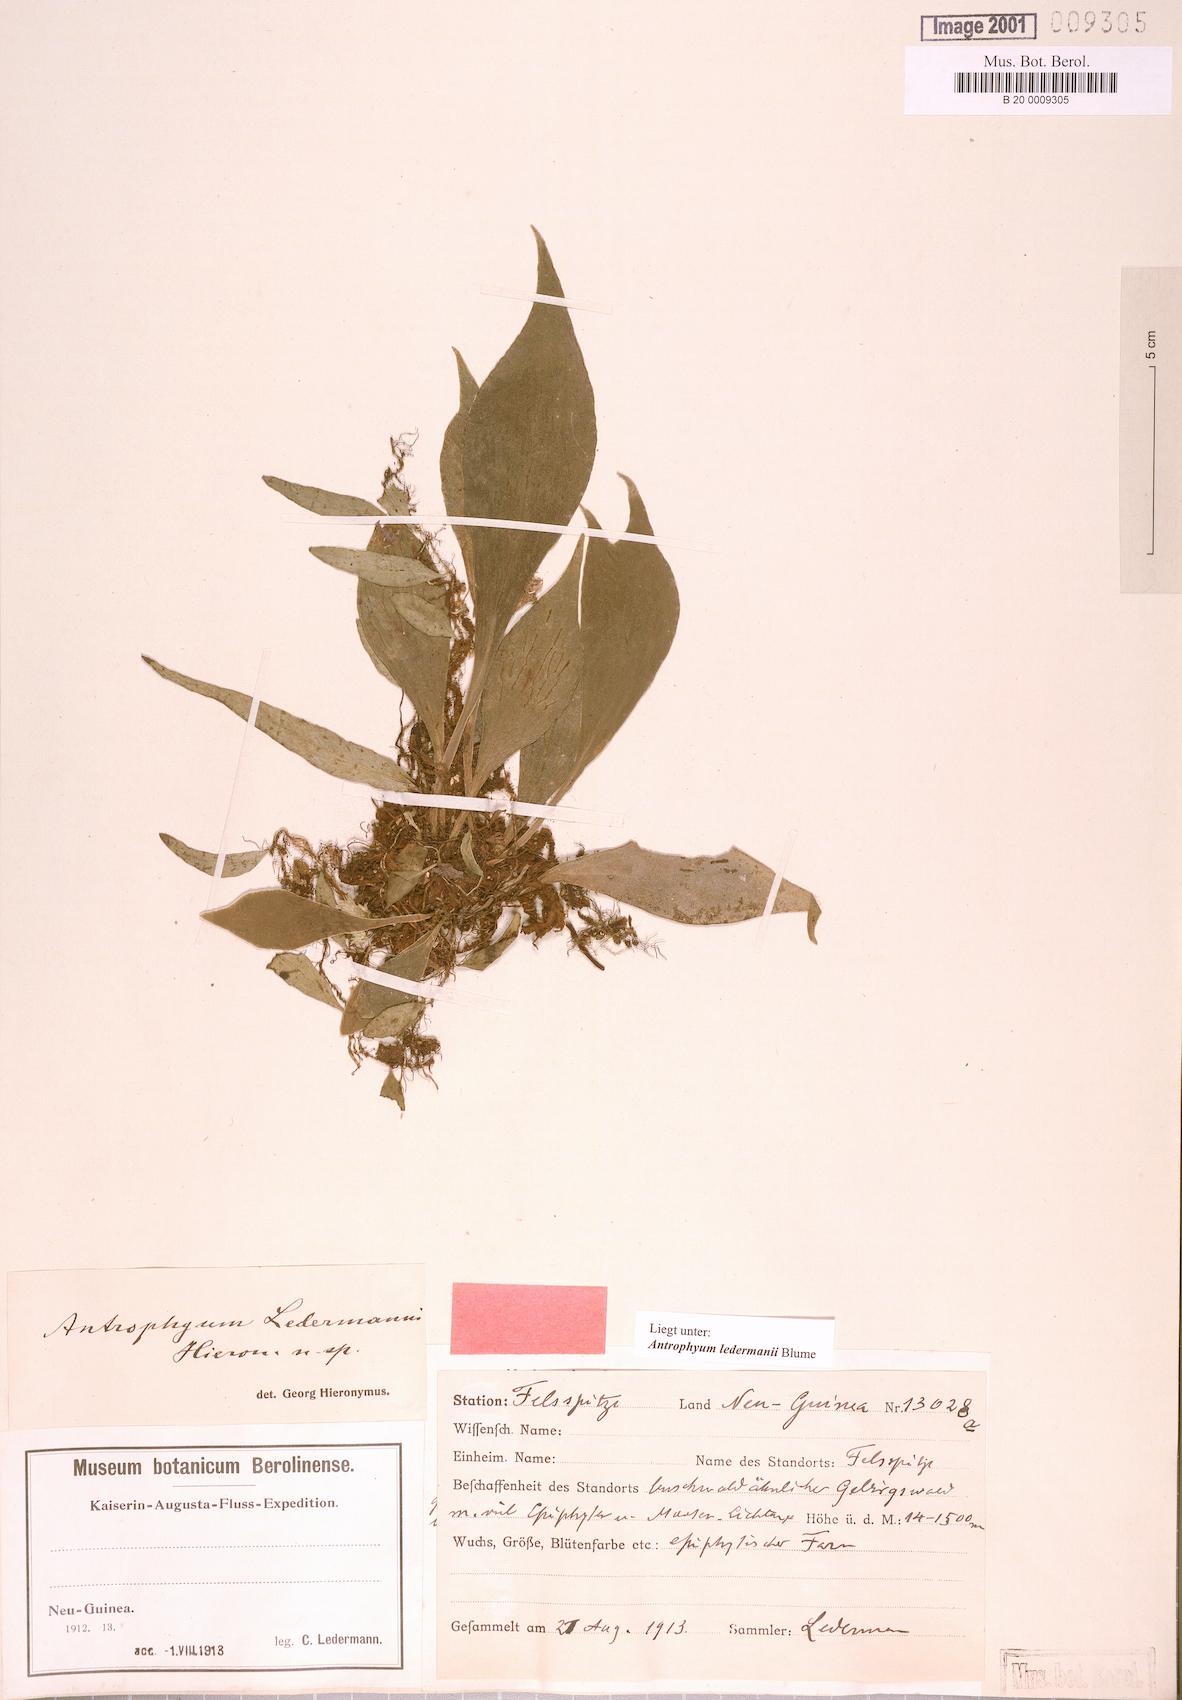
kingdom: Plantae
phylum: Tracheophyta
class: Polypodiopsida
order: Polypodiales
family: Pteridaceae
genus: Antrophyum
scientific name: Antrophyum ledermannii
